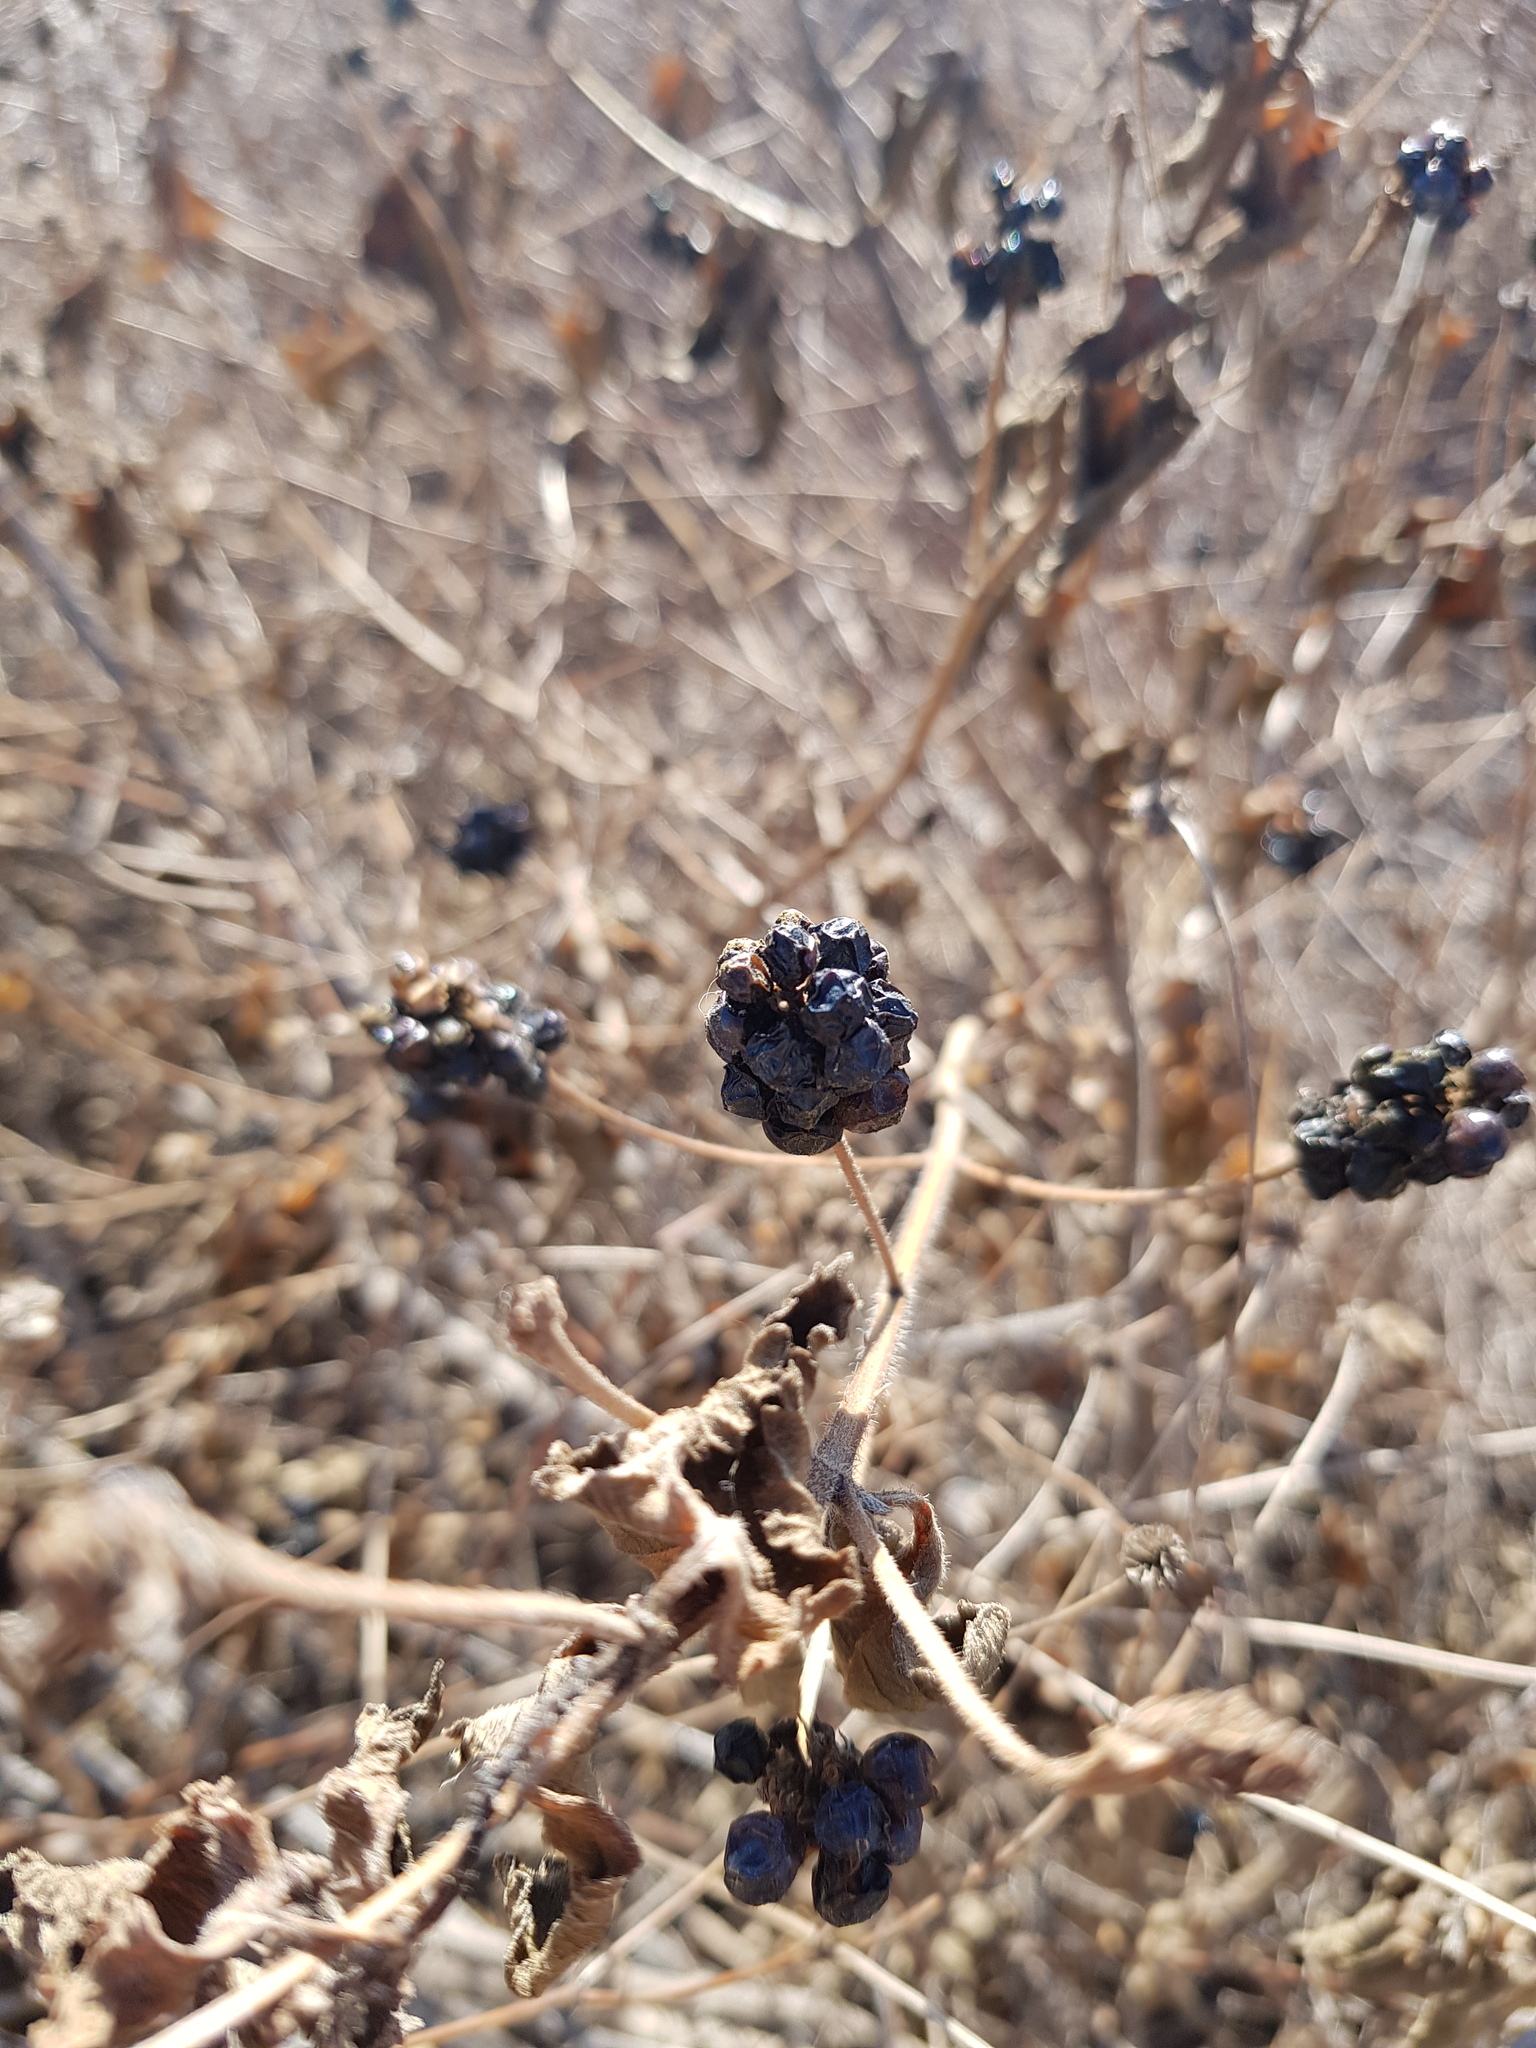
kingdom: Plantae
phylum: Tracheophyta
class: Magnoliopsida
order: Lamiales
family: Verbenaceae
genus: Lantana
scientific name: Lantana camara
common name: Lantana
